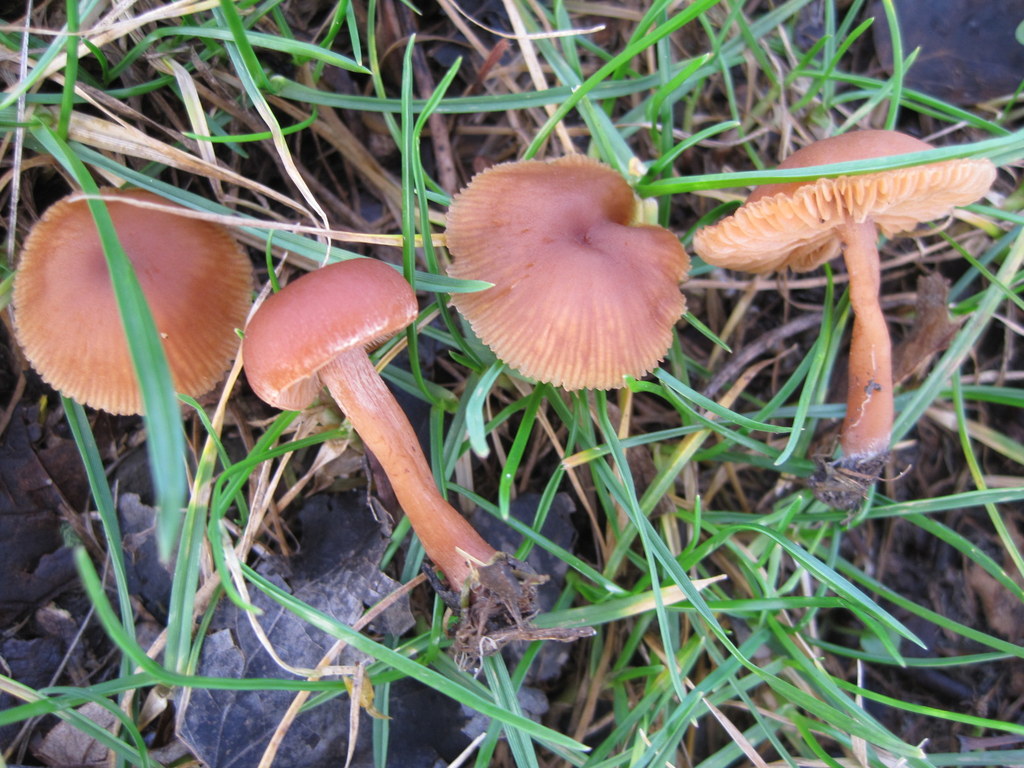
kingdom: Fungi
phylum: Basidiomycota
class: Agaricomycetes
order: Agaricales
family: Tubariaceae
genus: Tubaria
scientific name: Tubaria furfuracea
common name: kliddet fnughat
